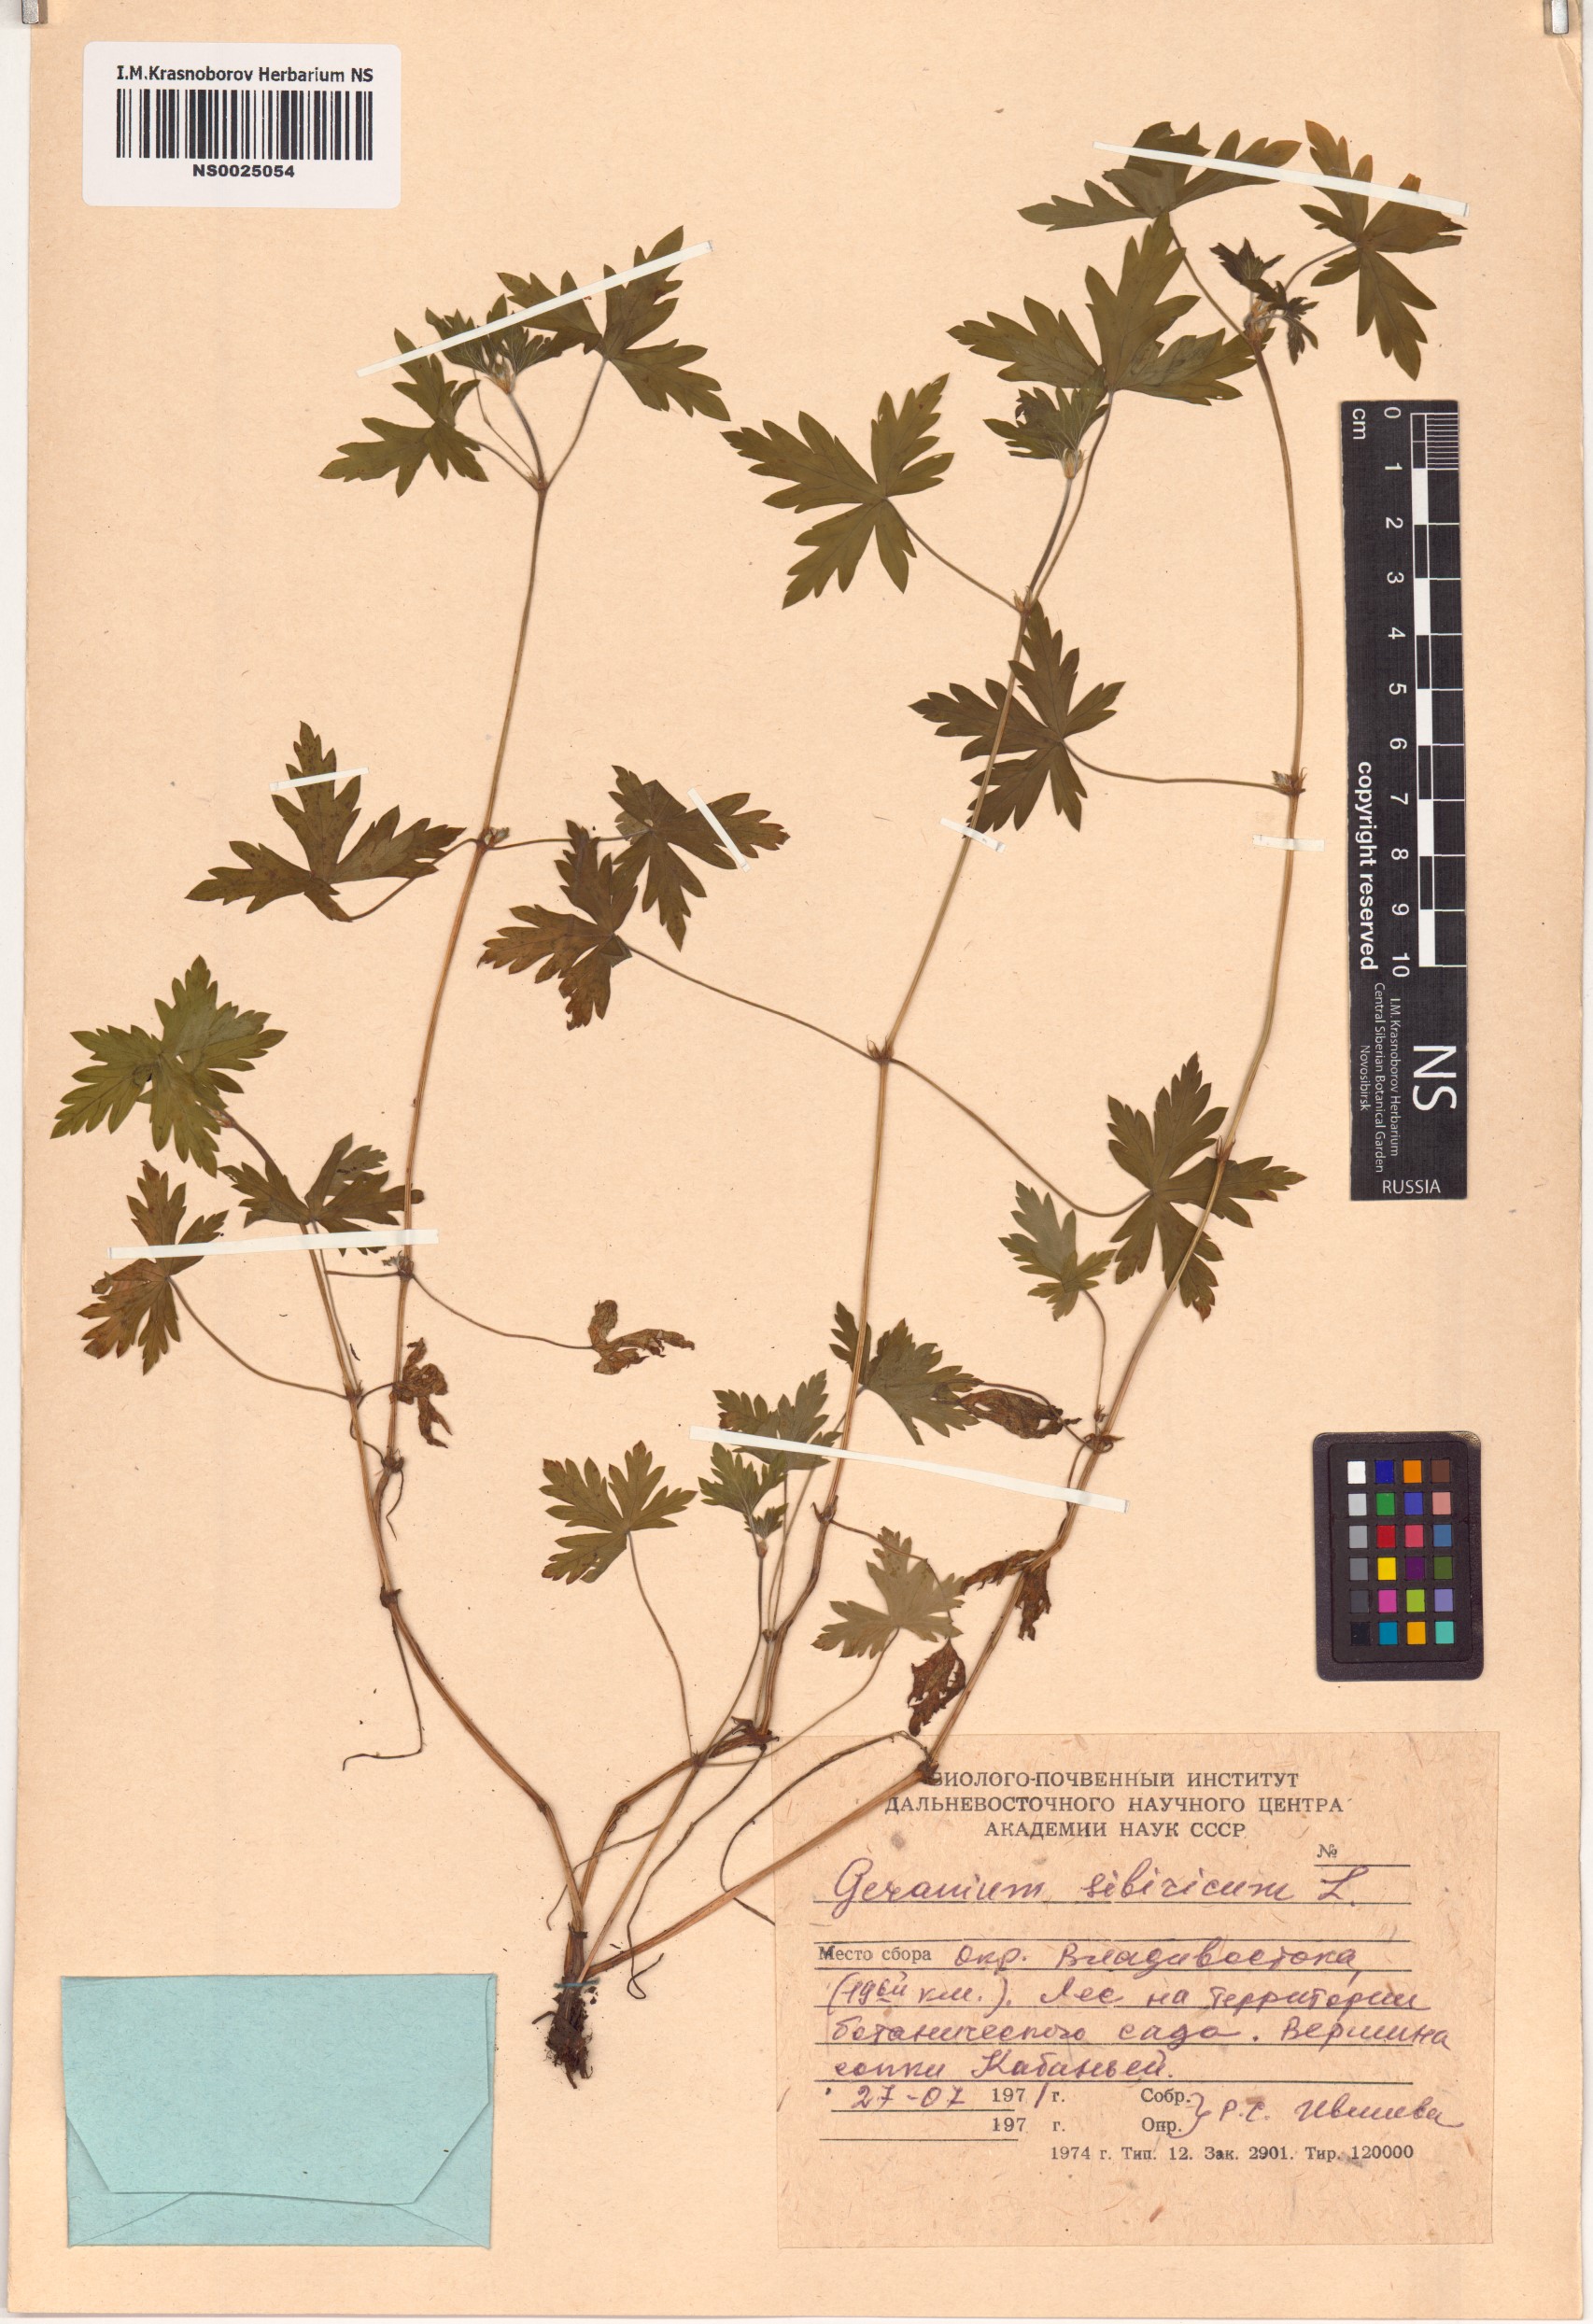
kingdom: Plantae
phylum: Tracheophyta
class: Magnoliopsida
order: Geraniales
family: Geraniaceae
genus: Geranium
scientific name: Geranium sibiricum
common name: Siberian crane's-bill
